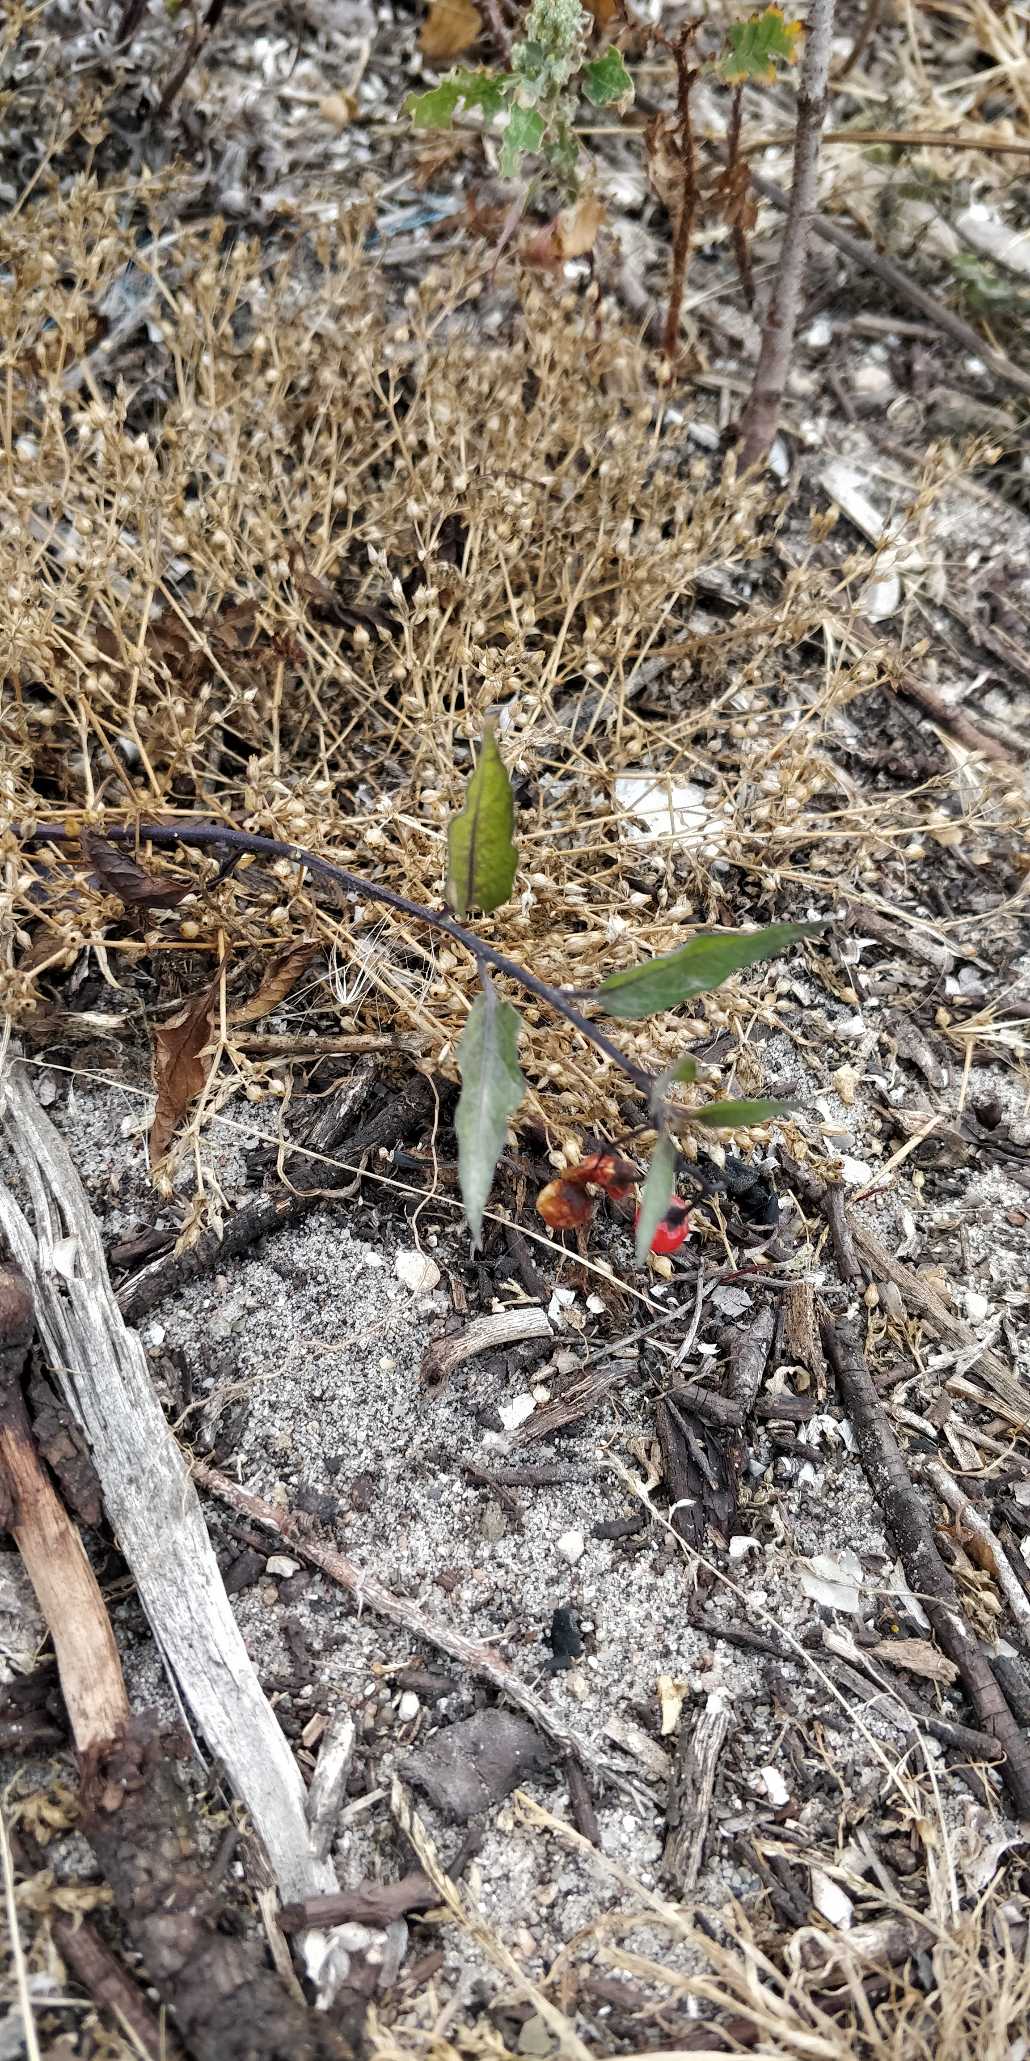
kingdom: Plantae
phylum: Tracheophyta
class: Magnoliopsida
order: Solanales
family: Solanaceae
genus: Solanum
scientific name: Solanum dulcamara
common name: Bittersød natskygge
